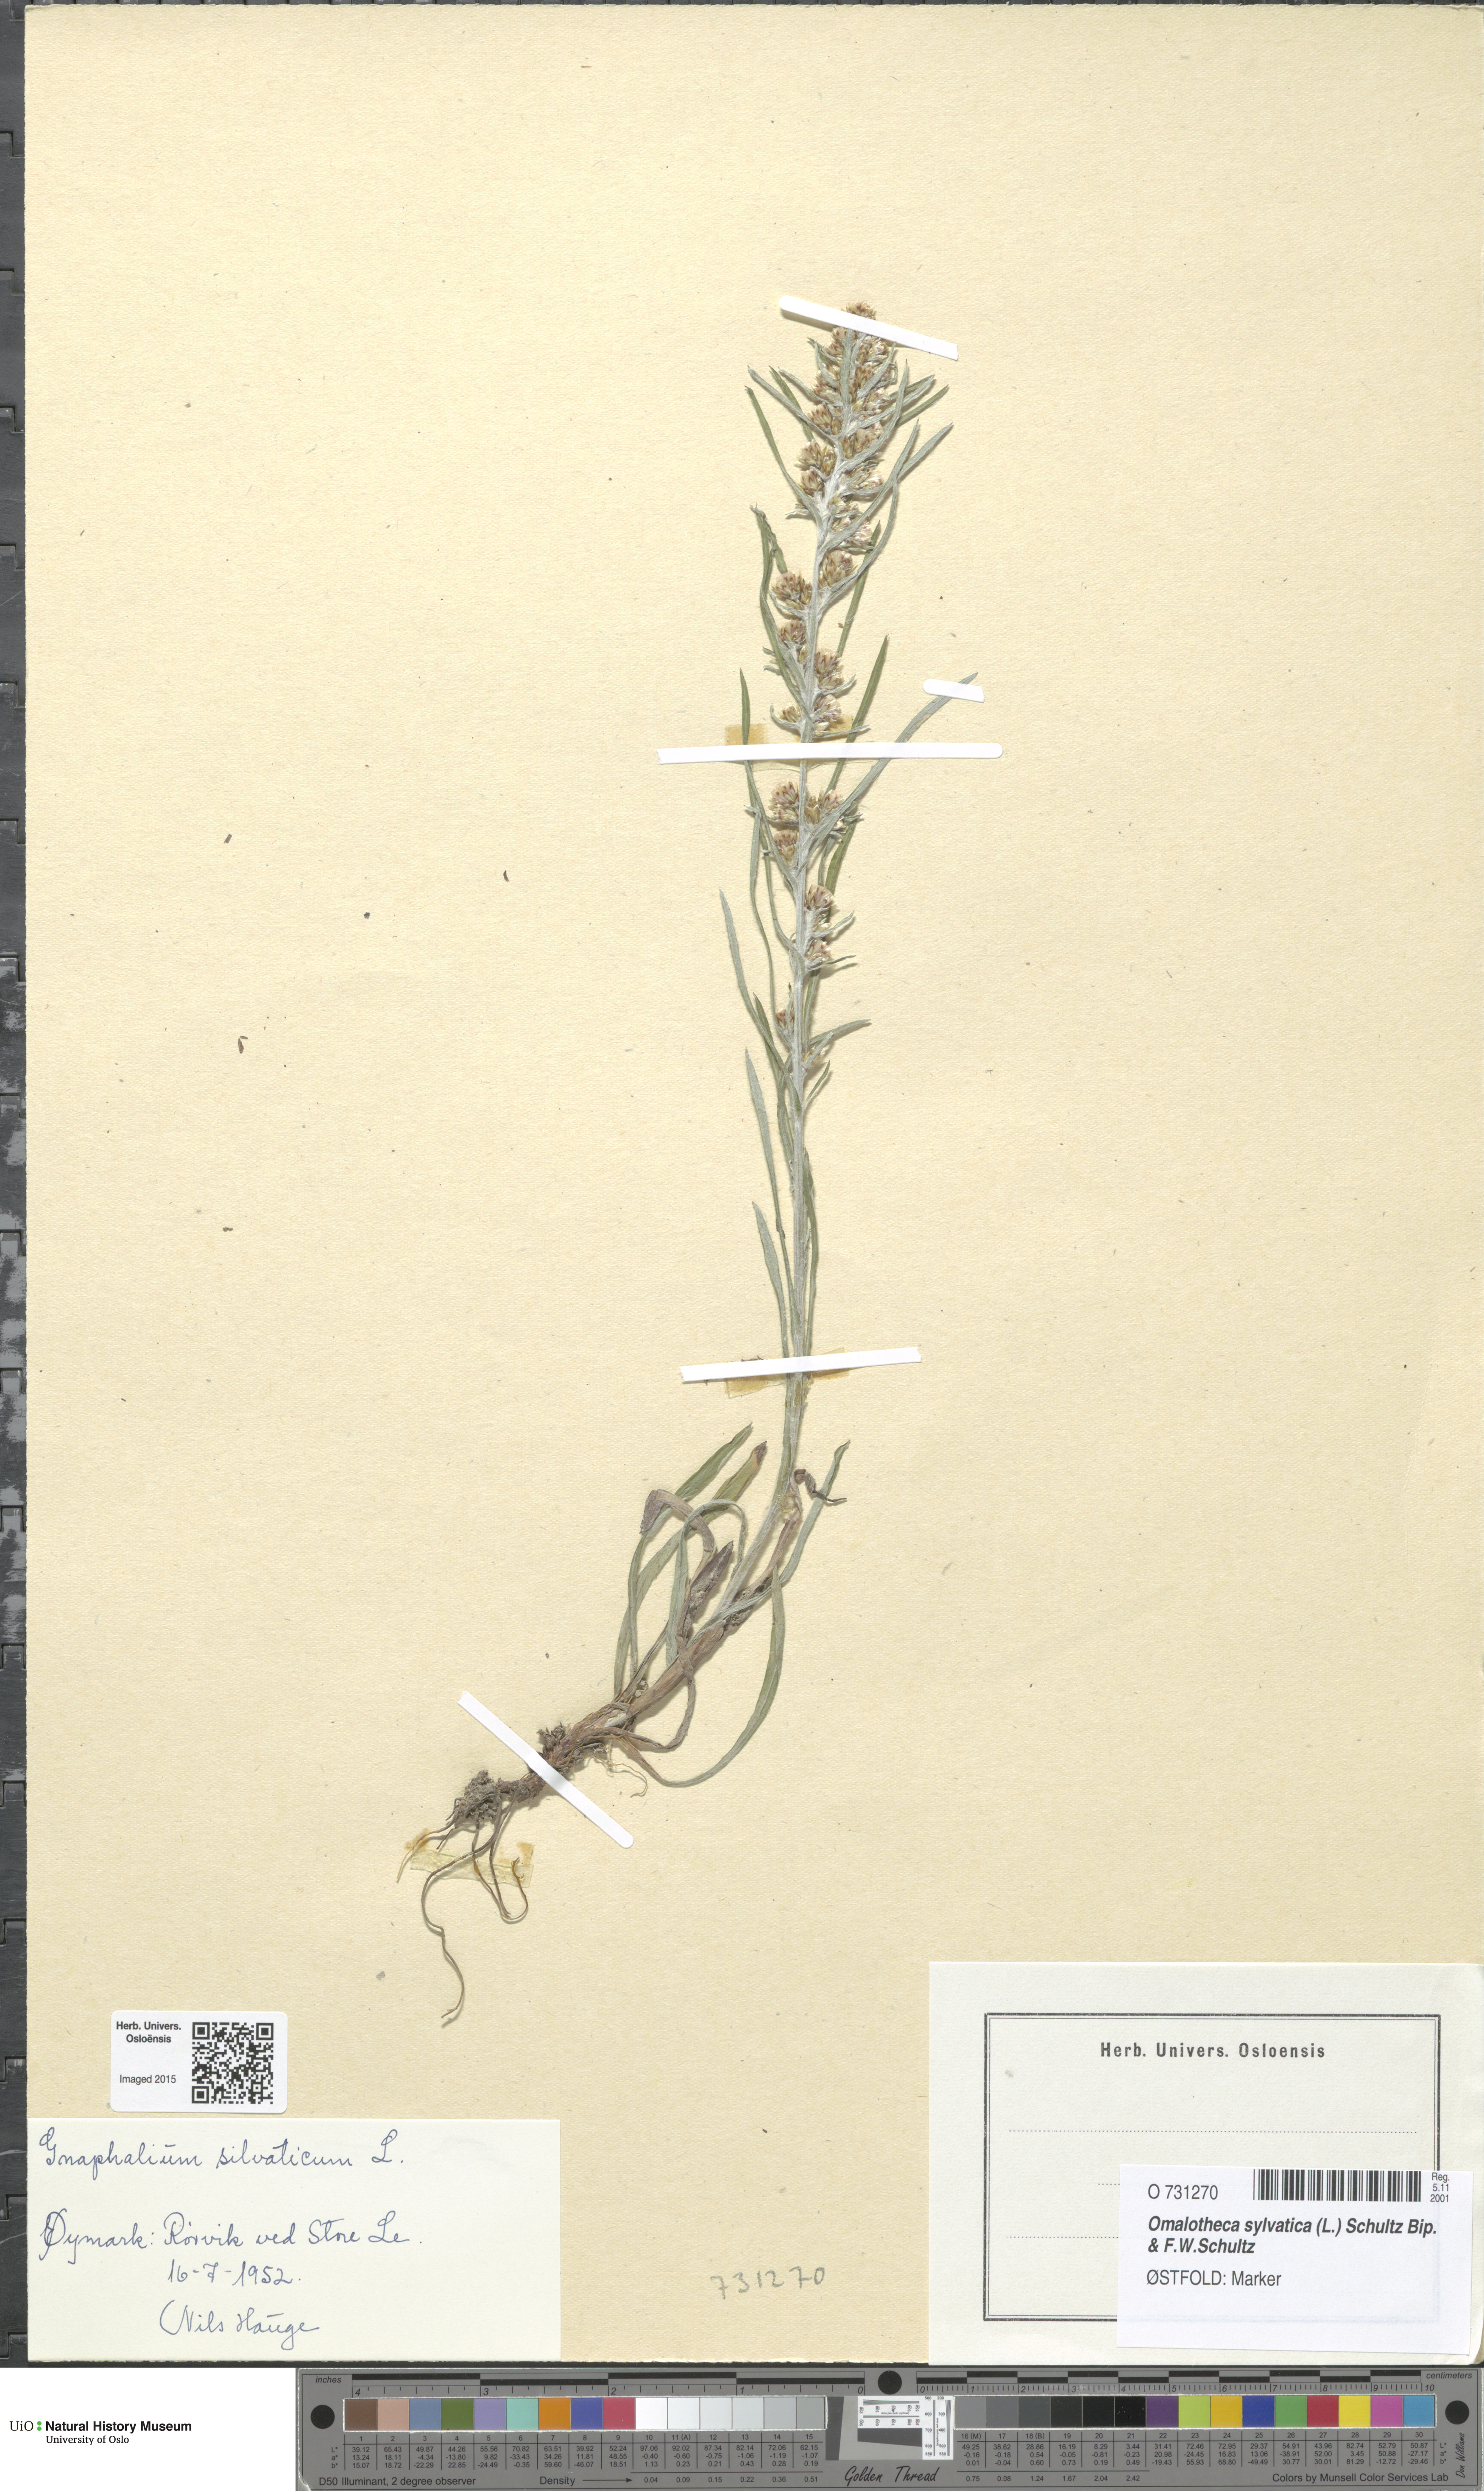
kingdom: Plantae
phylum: Tracheophyta
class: Magnoliopsida
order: Asterales
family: Asteraceae
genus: Omalotheca
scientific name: Omalotheca sylvatica
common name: Heath cudweed
